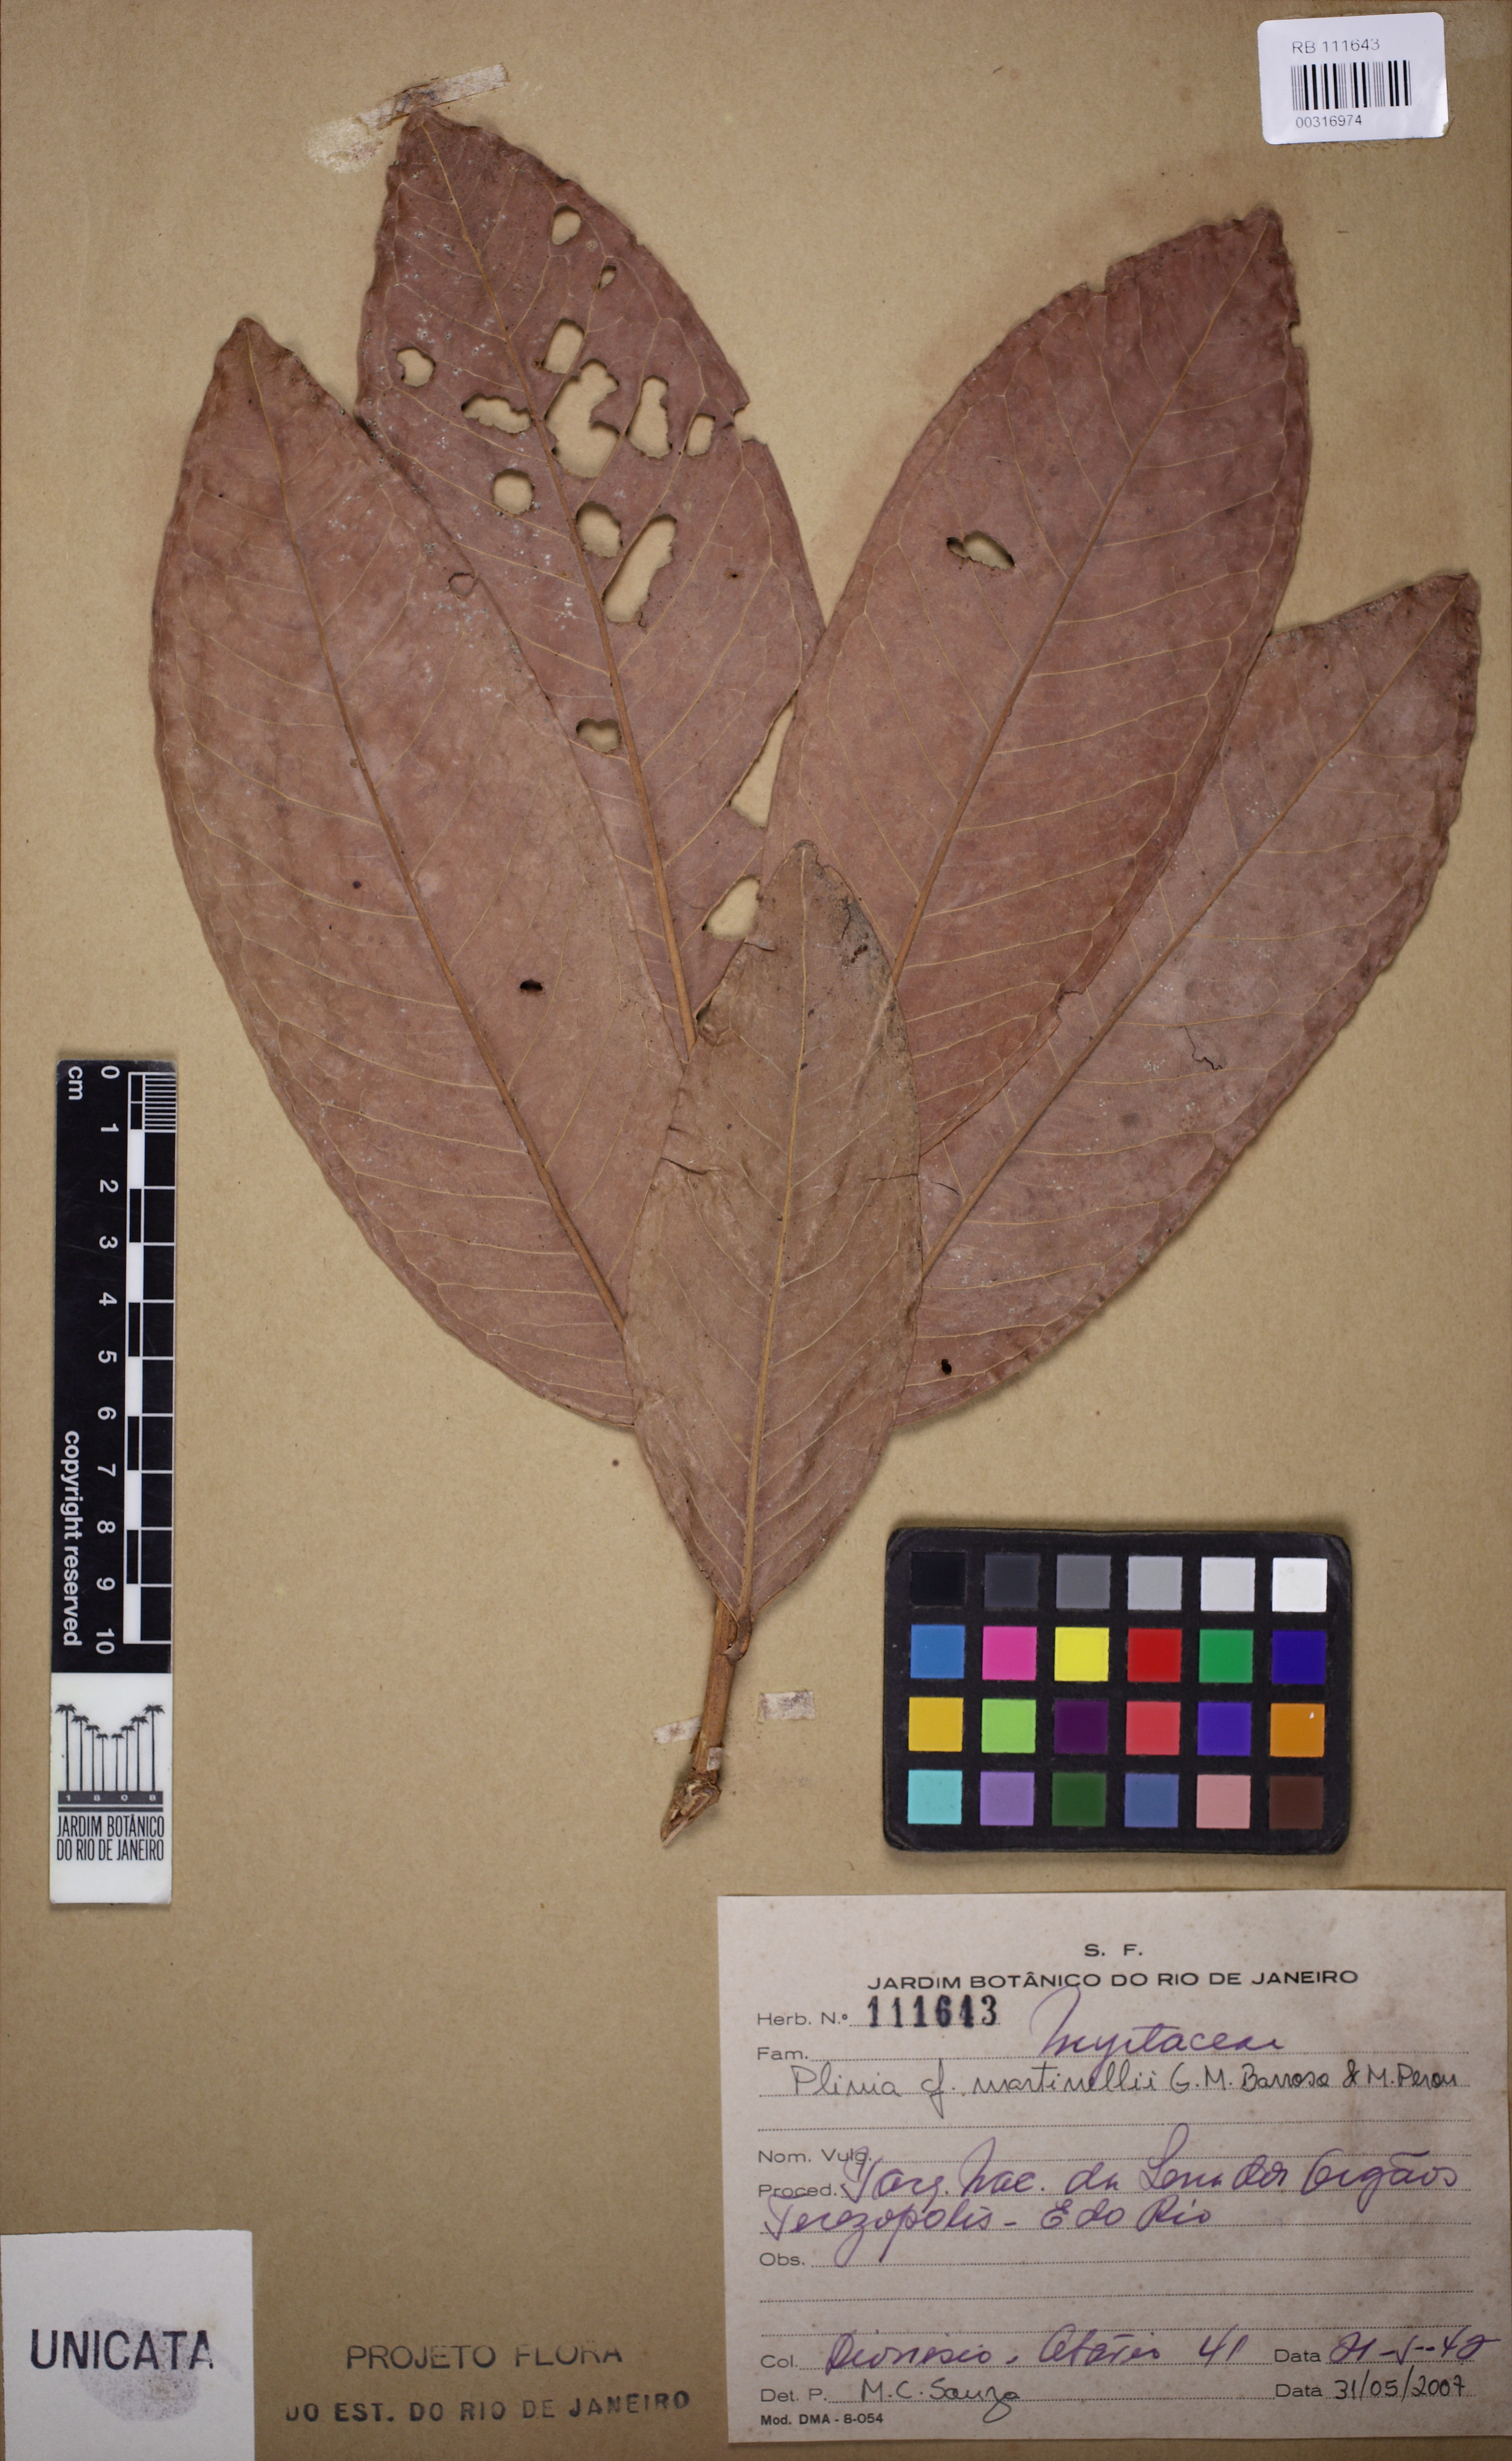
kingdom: Plantae
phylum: Tracheophyta
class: Magnoliopsida
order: Myrtales
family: Myrtaceae
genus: Eugenia
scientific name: Eugenia martinellii
